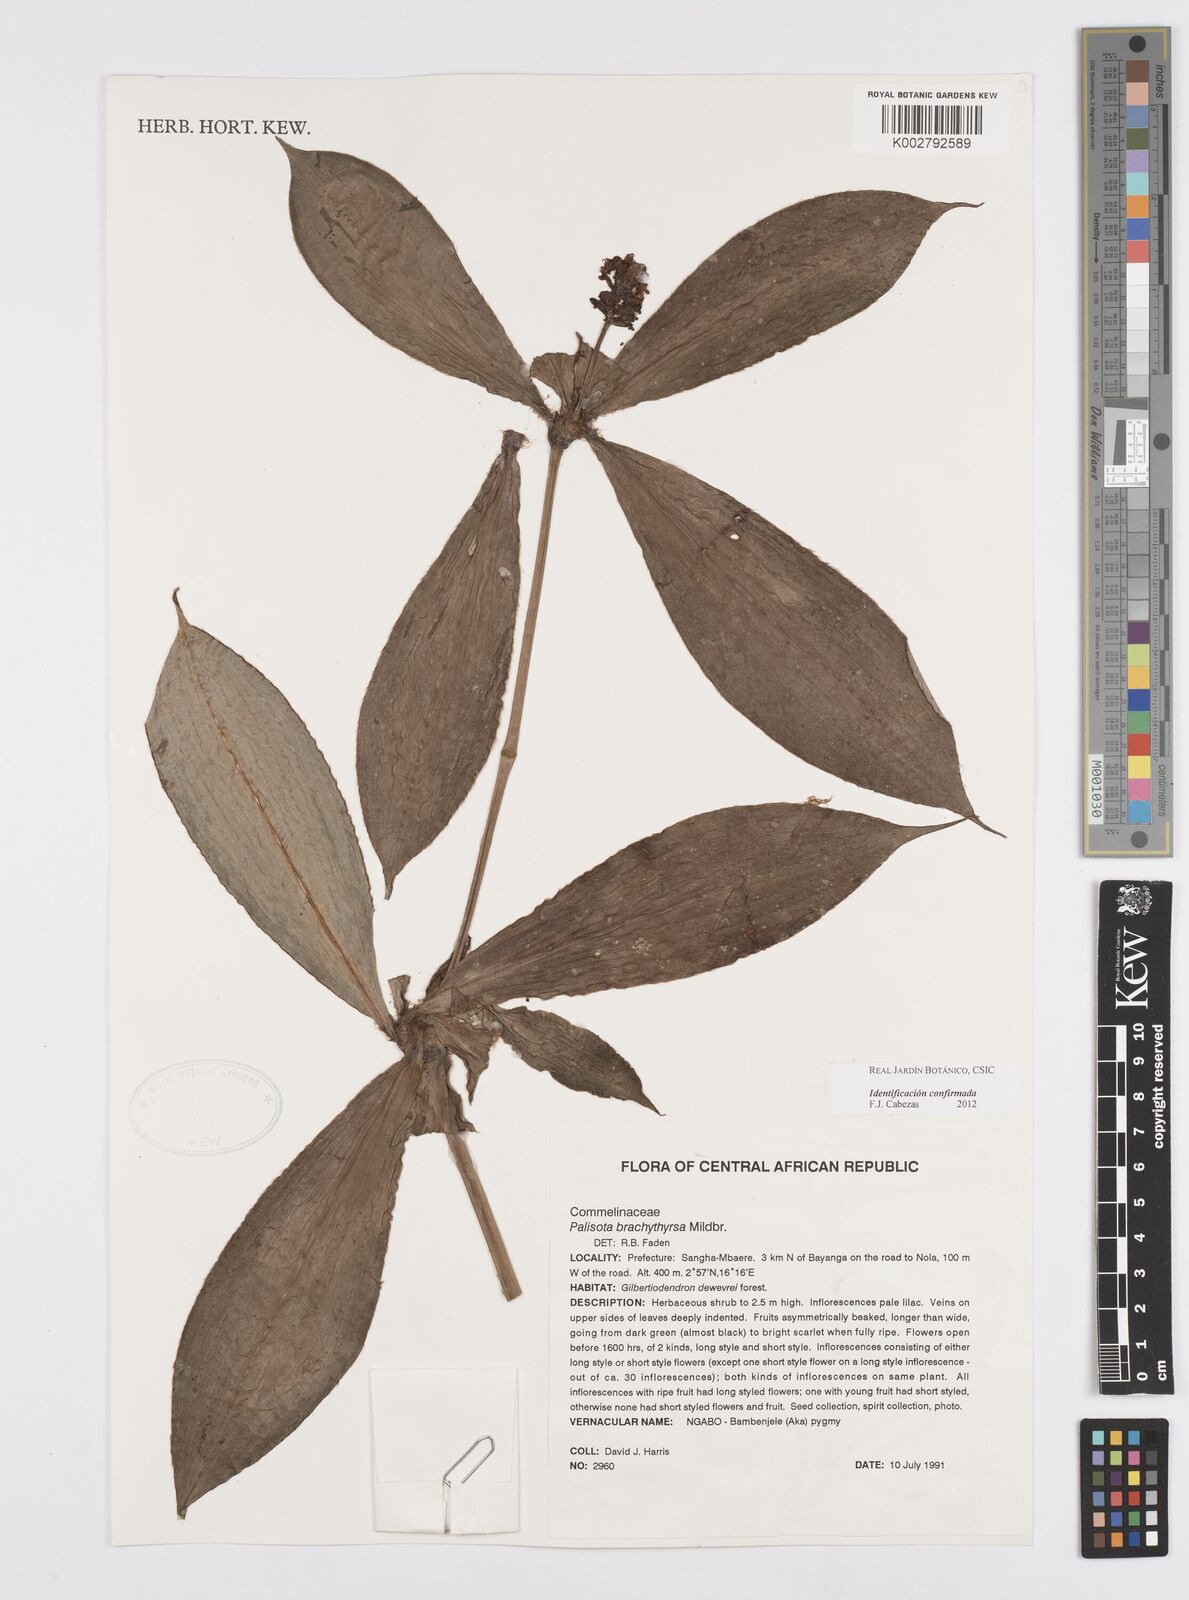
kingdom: Plantae
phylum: Tracheophyta
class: Liliopsida
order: Commelinales
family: Commelinaceae
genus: Palisota
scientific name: Palisota brachythyrsa
